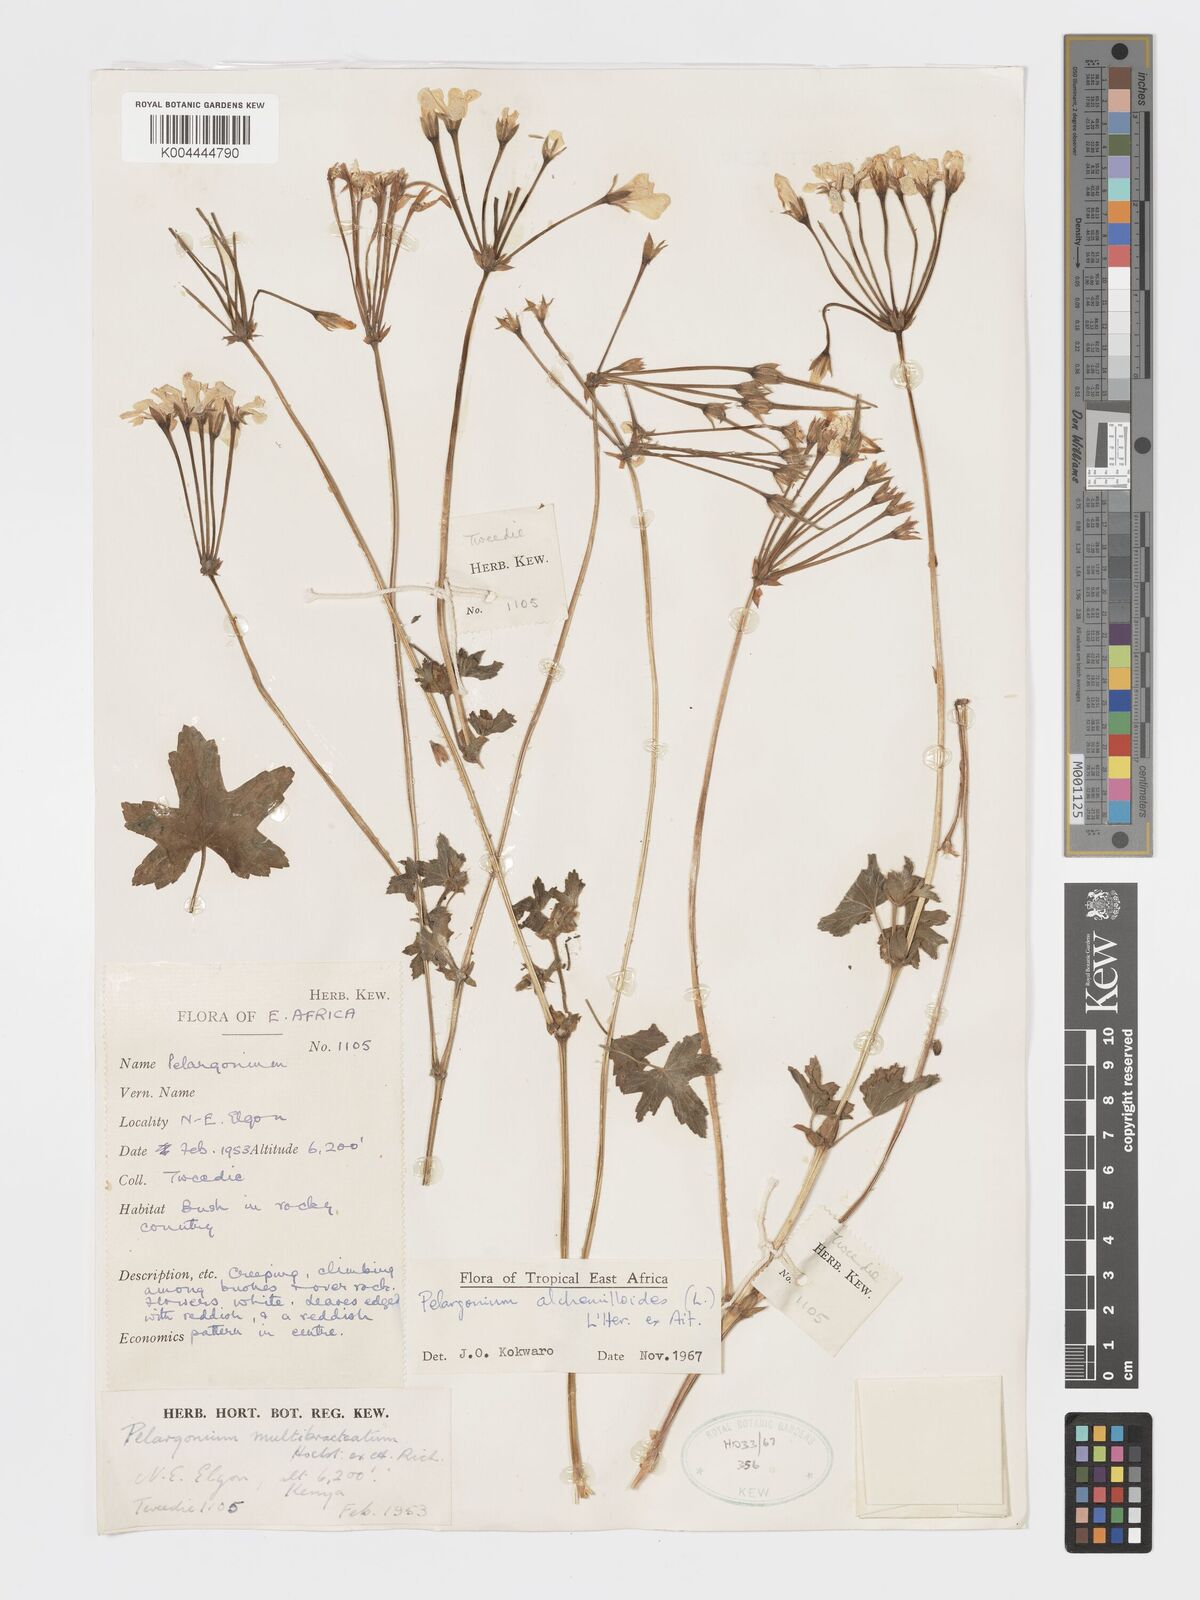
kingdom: Plantae
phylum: Tracheophyta
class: Magnoliopsida
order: Geraniales
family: Geraniaceae
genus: Pelargonium
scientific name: Pelargonium alchemilloides
